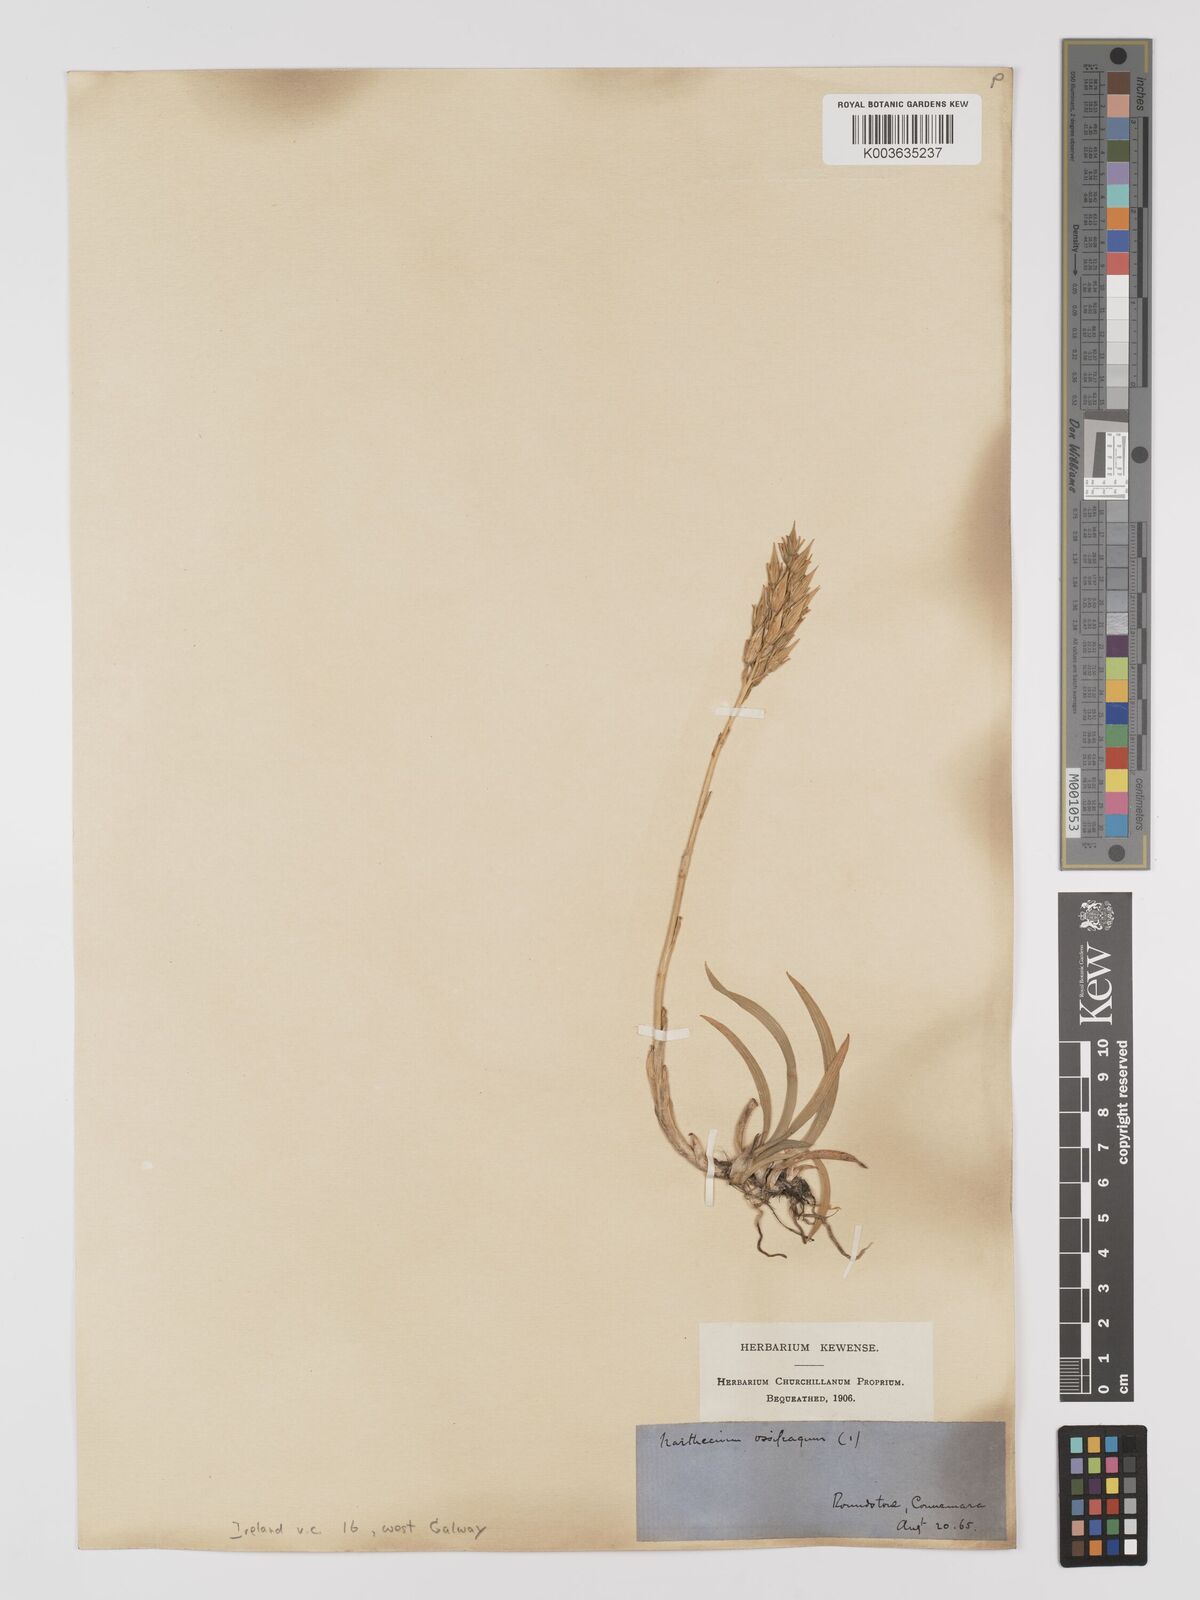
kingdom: Plantae
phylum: Tracheophyta
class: Liliopsida
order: Dioscoreales
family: Nartheciaceae
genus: Narthecium
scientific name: Narthecium ossifragum
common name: Bog asphodel
